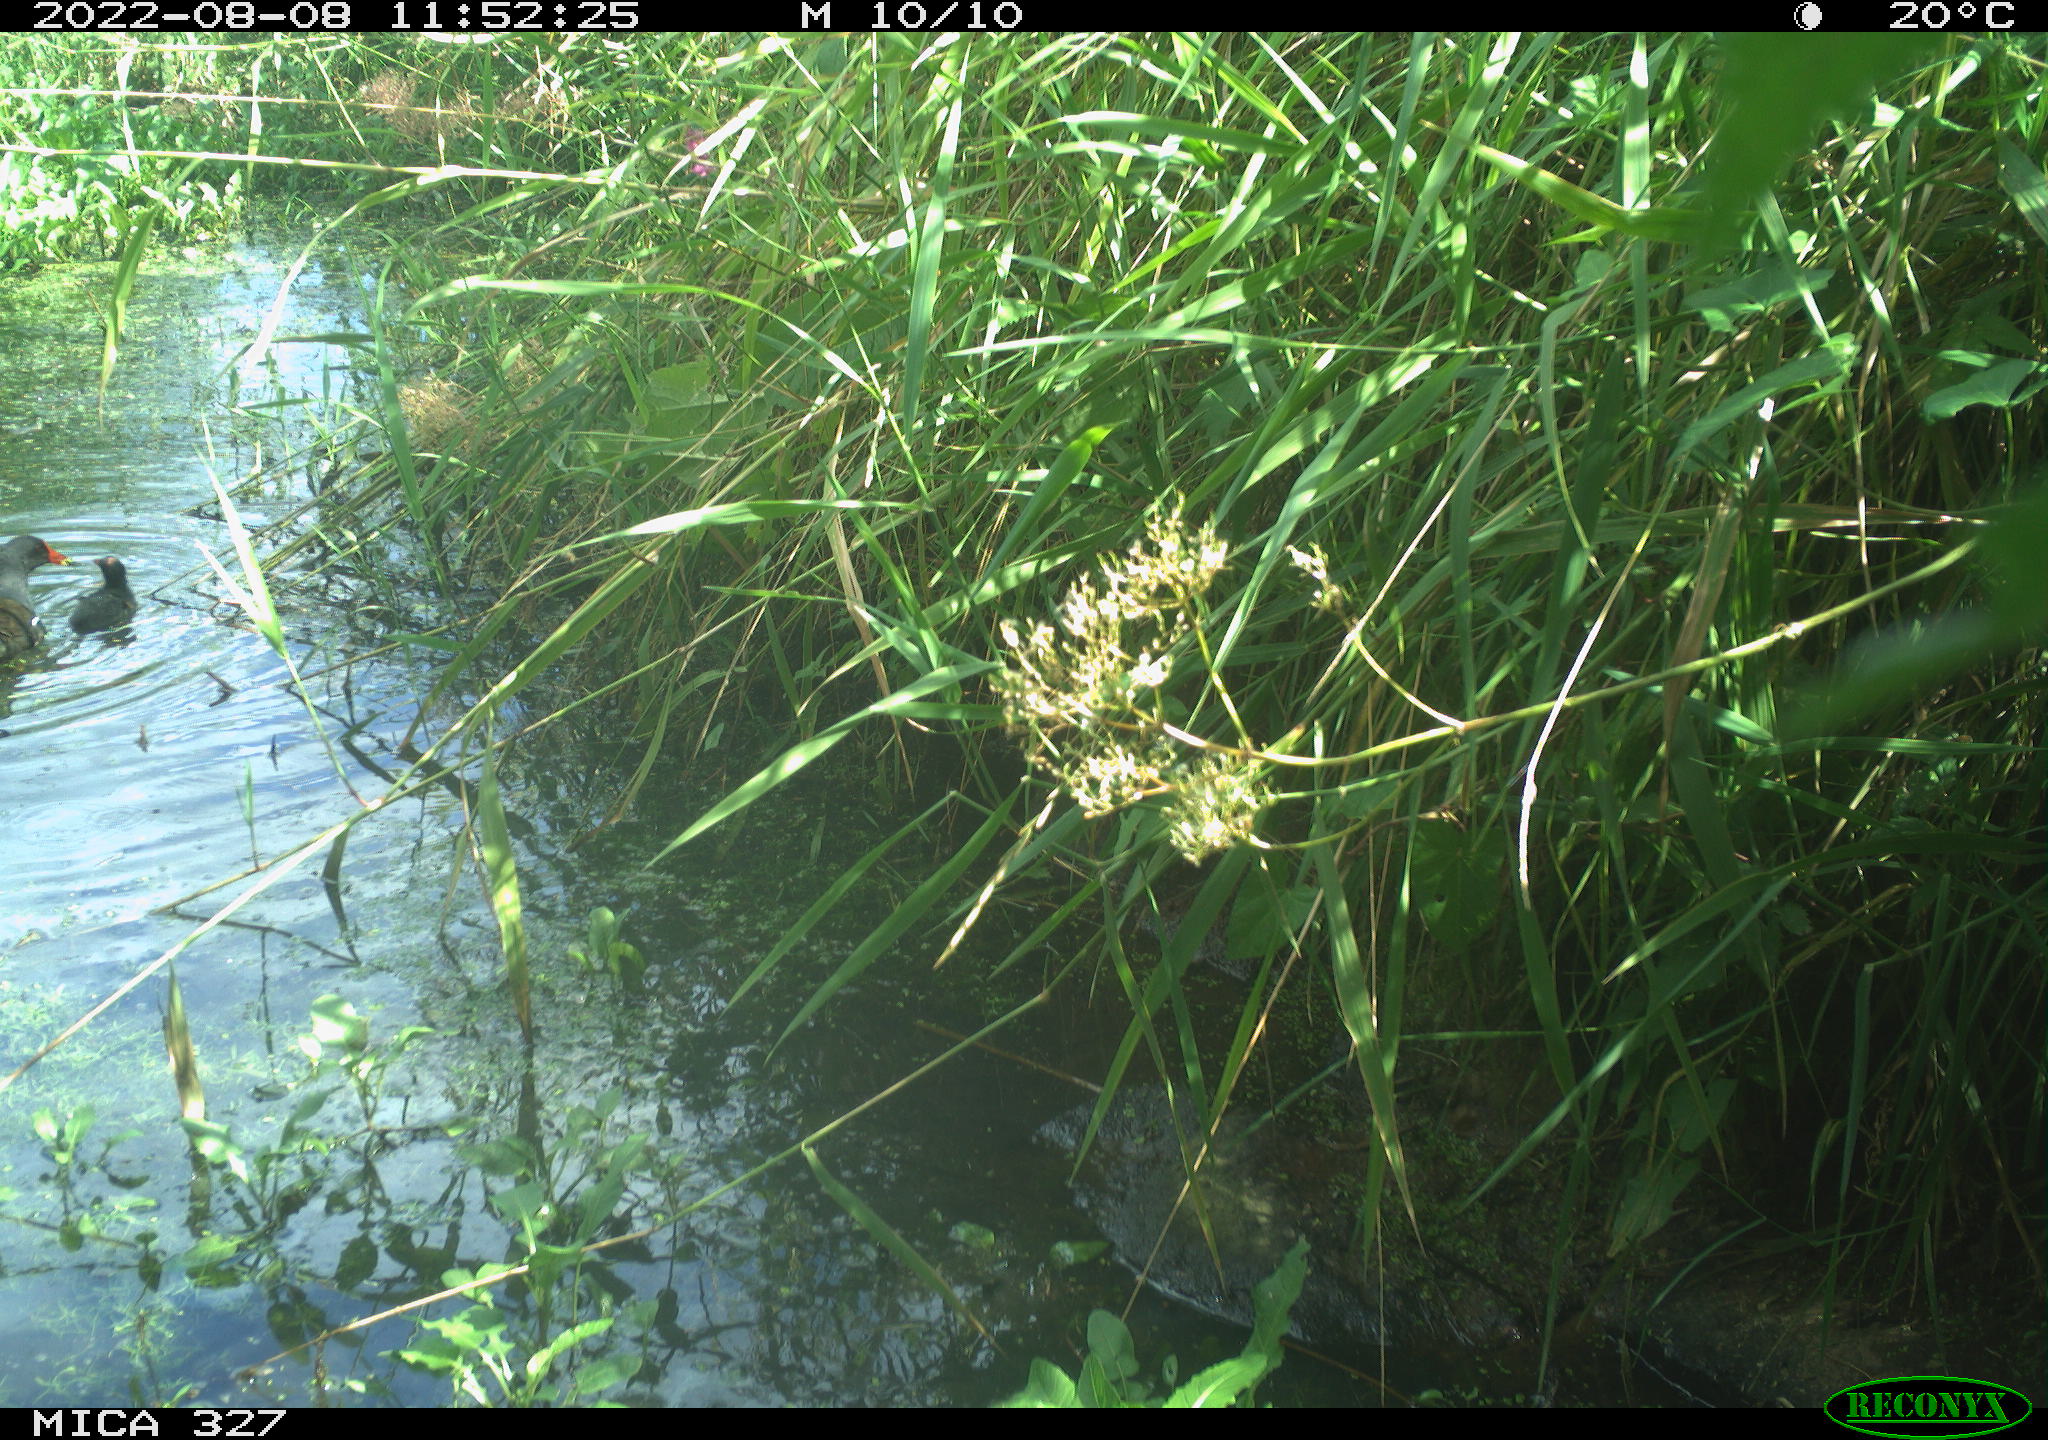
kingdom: Animalia
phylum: Chordata
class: Aves
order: Gruiformes
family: Rallidae
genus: Gallinula
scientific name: Gallinula chloropus
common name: Common moorhen
